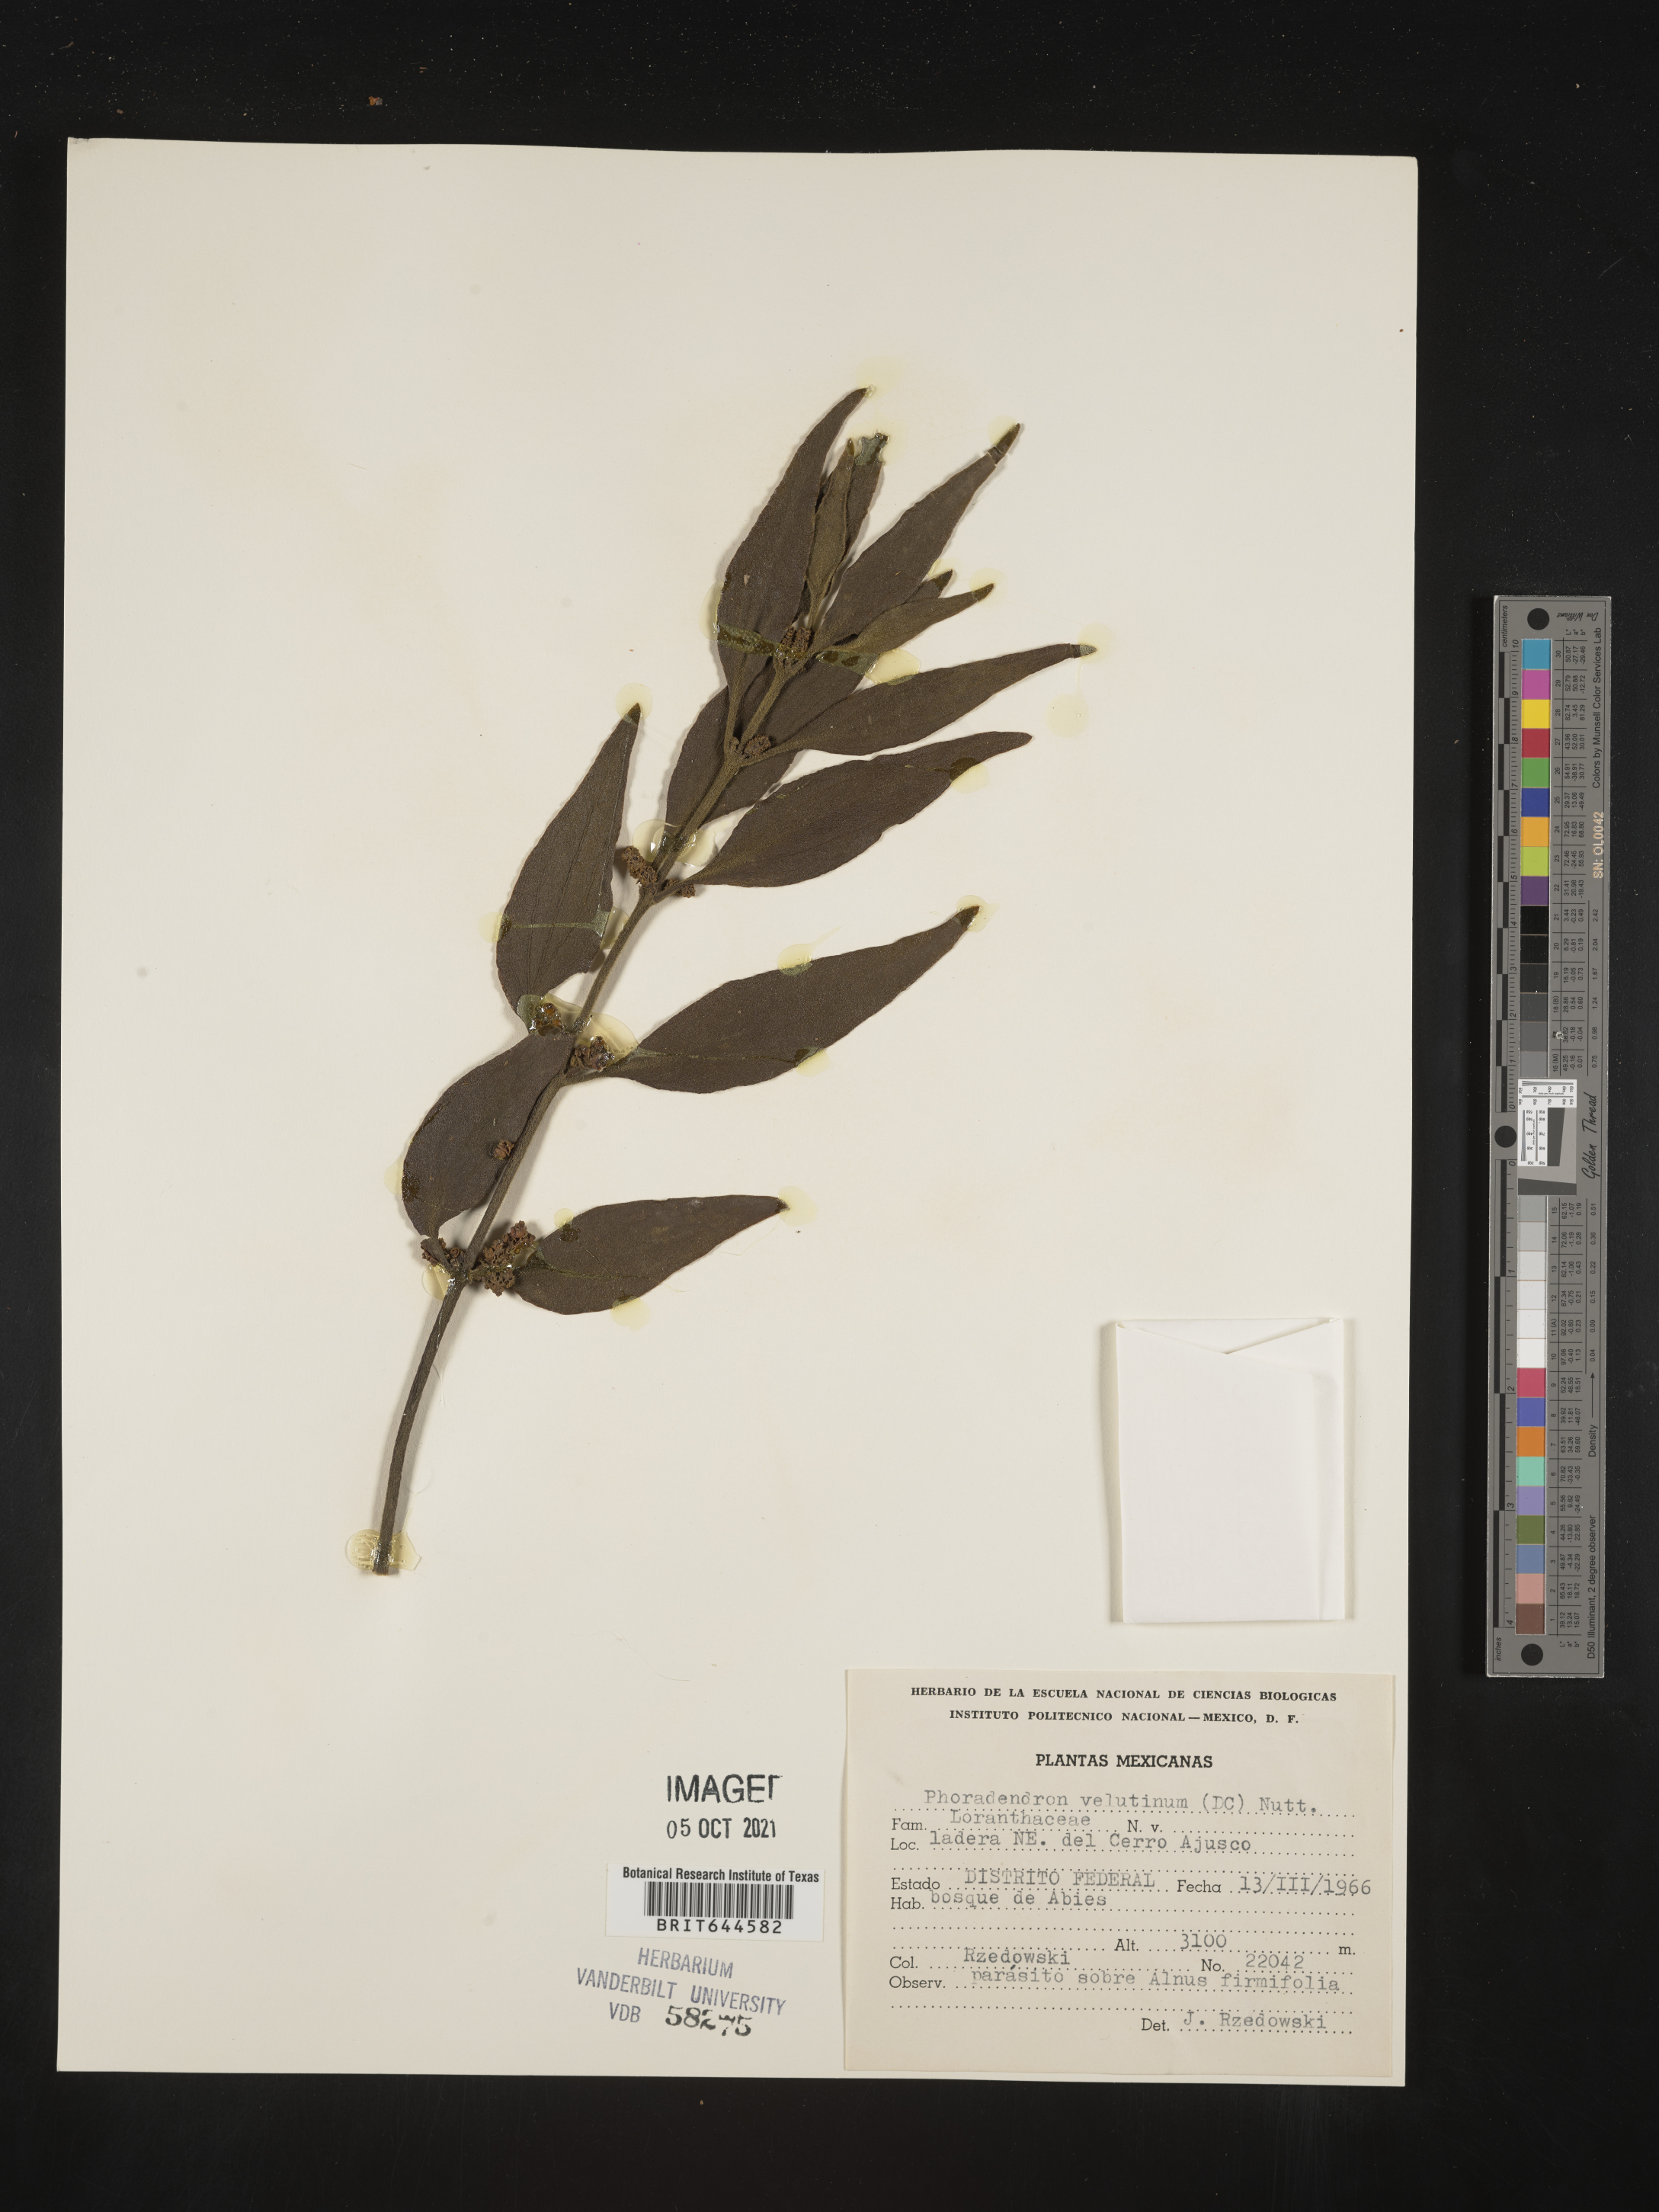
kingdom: Plantae
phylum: Tracheophyta
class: Magnoliopsida
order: Santalales
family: Viscaceae
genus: Phoradendron
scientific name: Phoradendron
